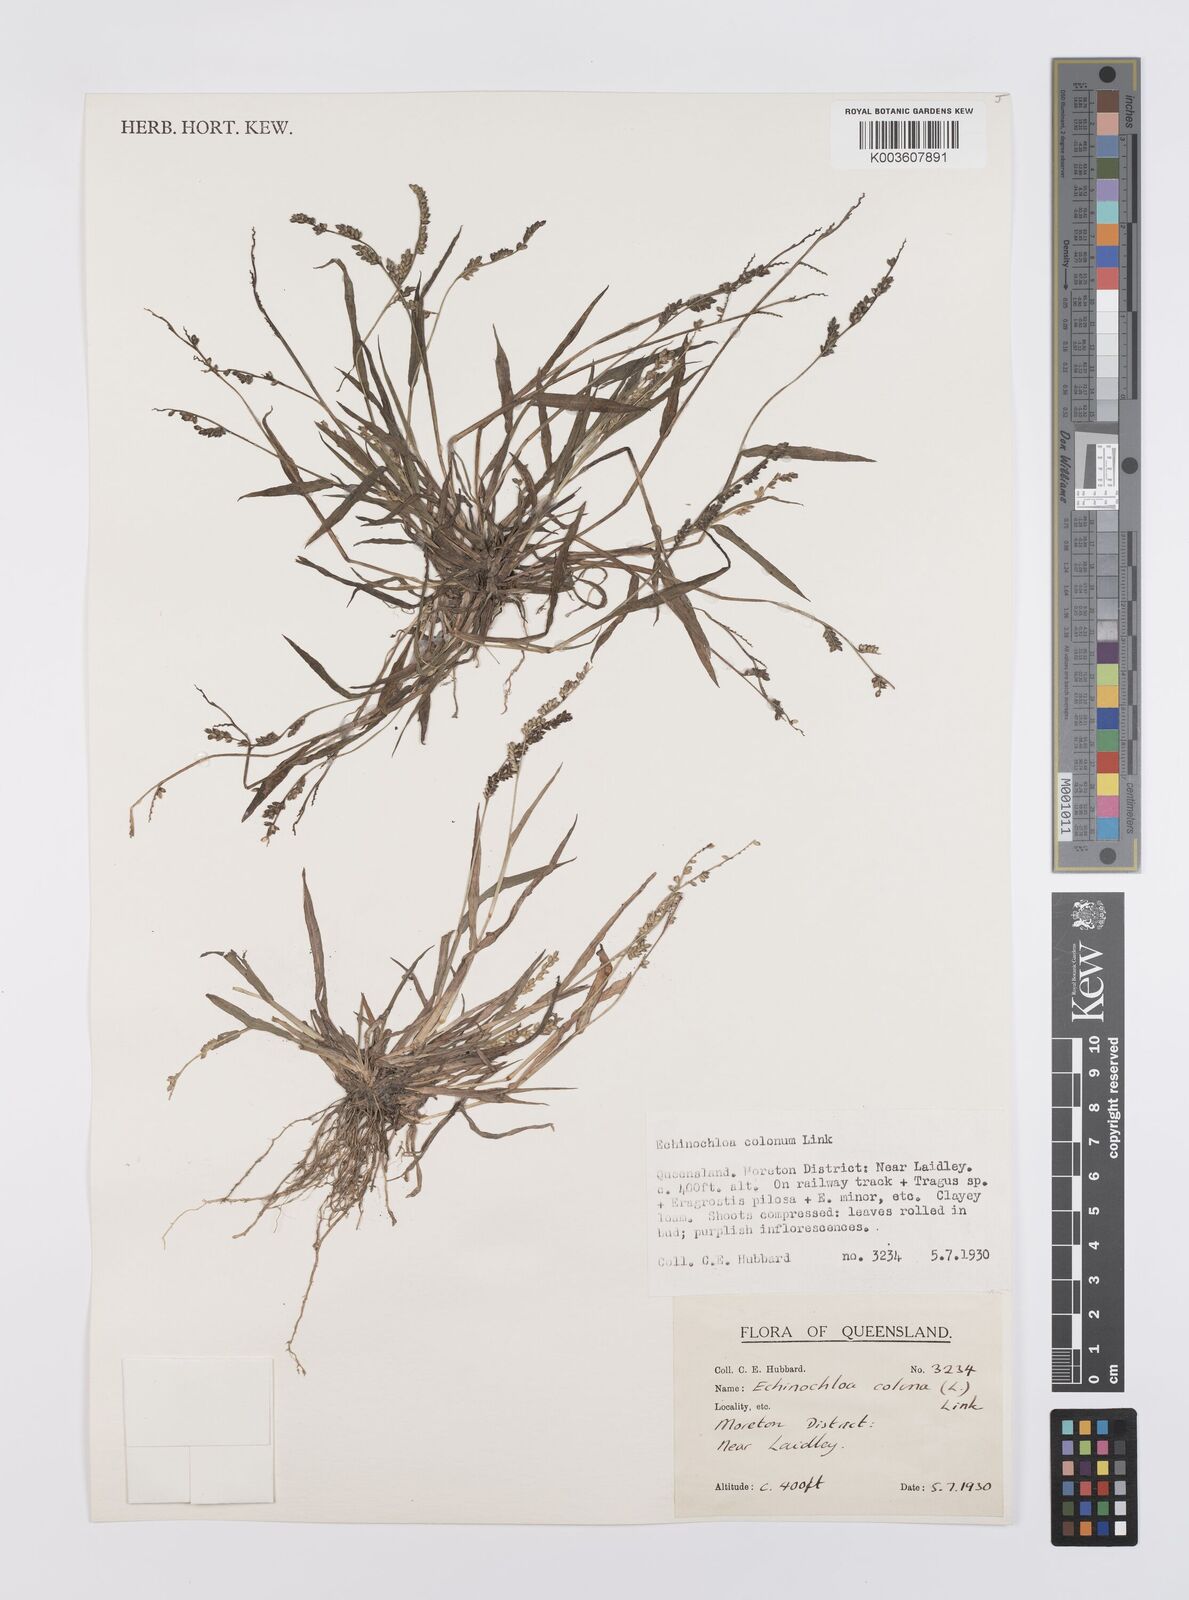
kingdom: Plantae
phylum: Tracheophyta
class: Liliopsida
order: Poales
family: Poaceae
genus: Echinochloa
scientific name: Echinochloa colonum
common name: Jungle rice
